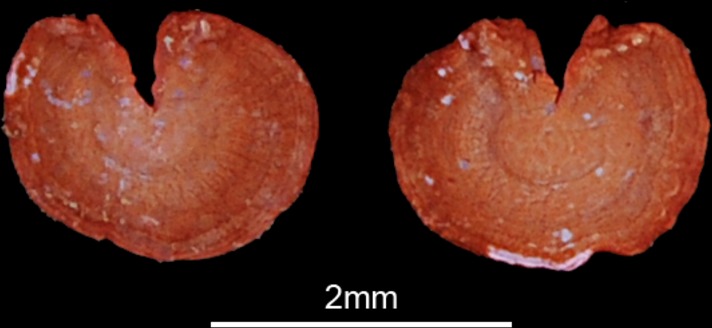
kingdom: Animalia
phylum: Chordata
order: Osteoglossiformes
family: Mormyridae
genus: Mormyrops
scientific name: Mormyrops anguilloides
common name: Cornish jack
